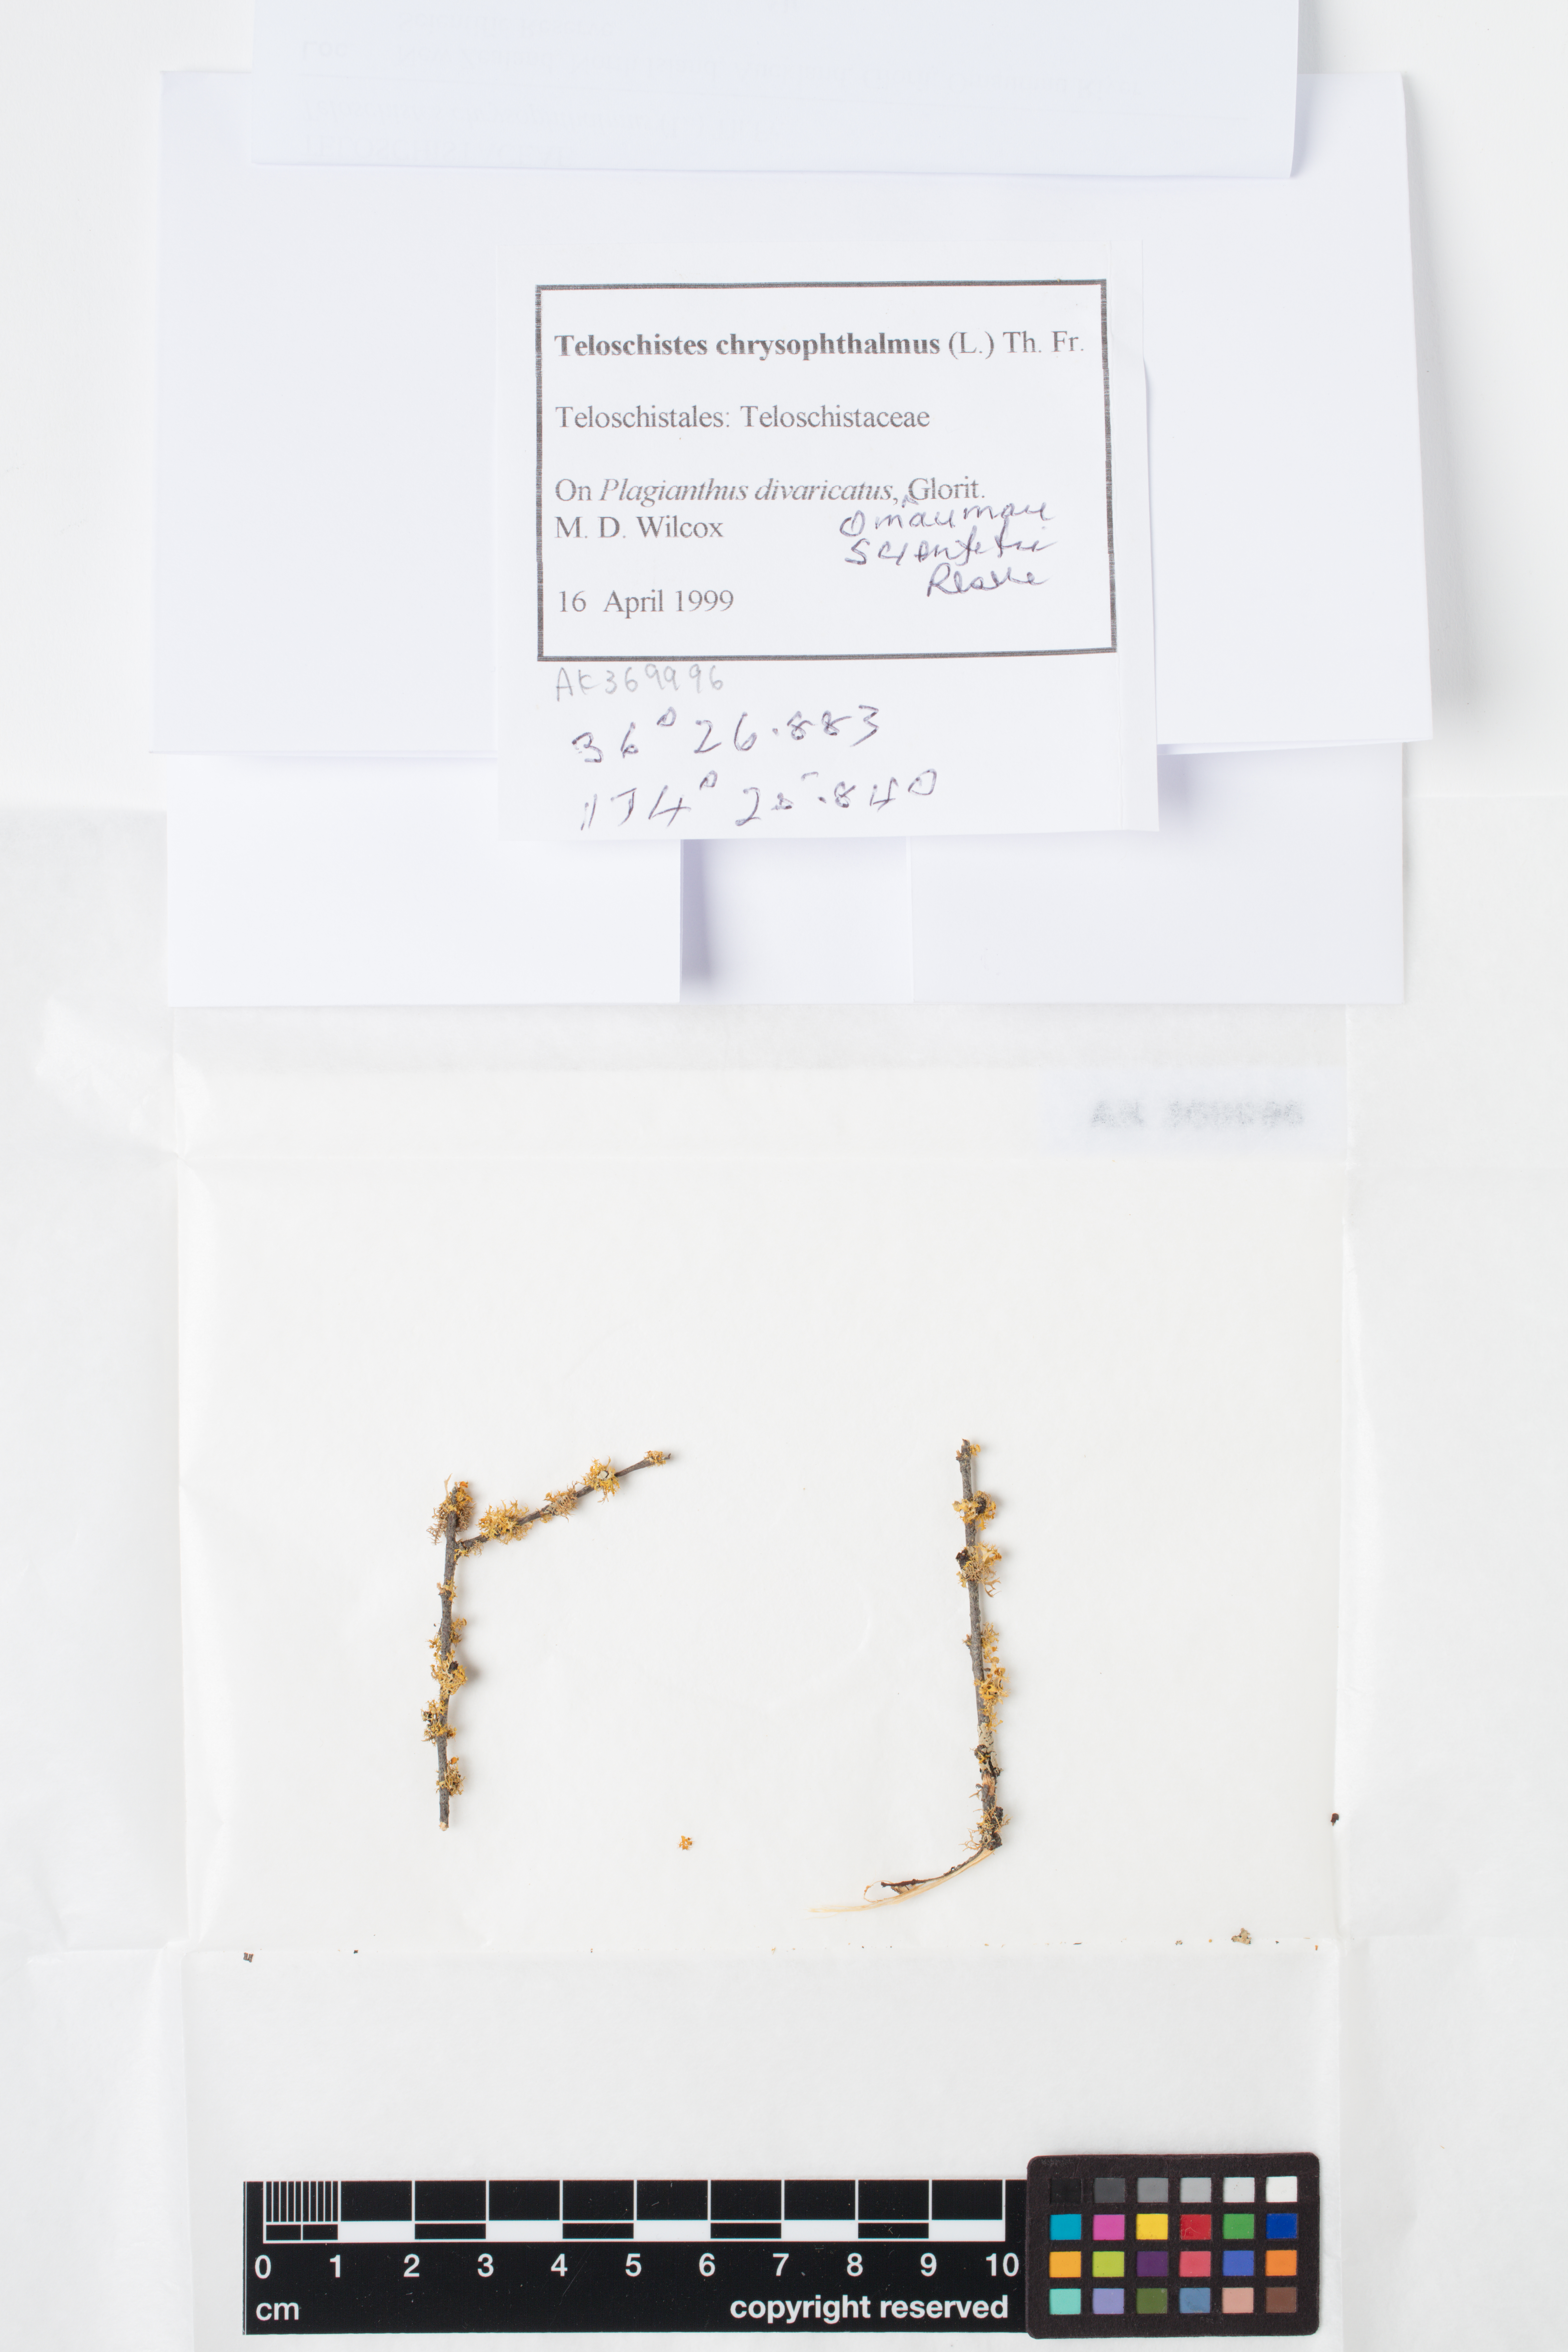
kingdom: Fungi
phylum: Ascomycota
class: Lecanoromycetes
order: Teloschistales
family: Teloschistaceae
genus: Niorma
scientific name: Niorma chrysophthalma
